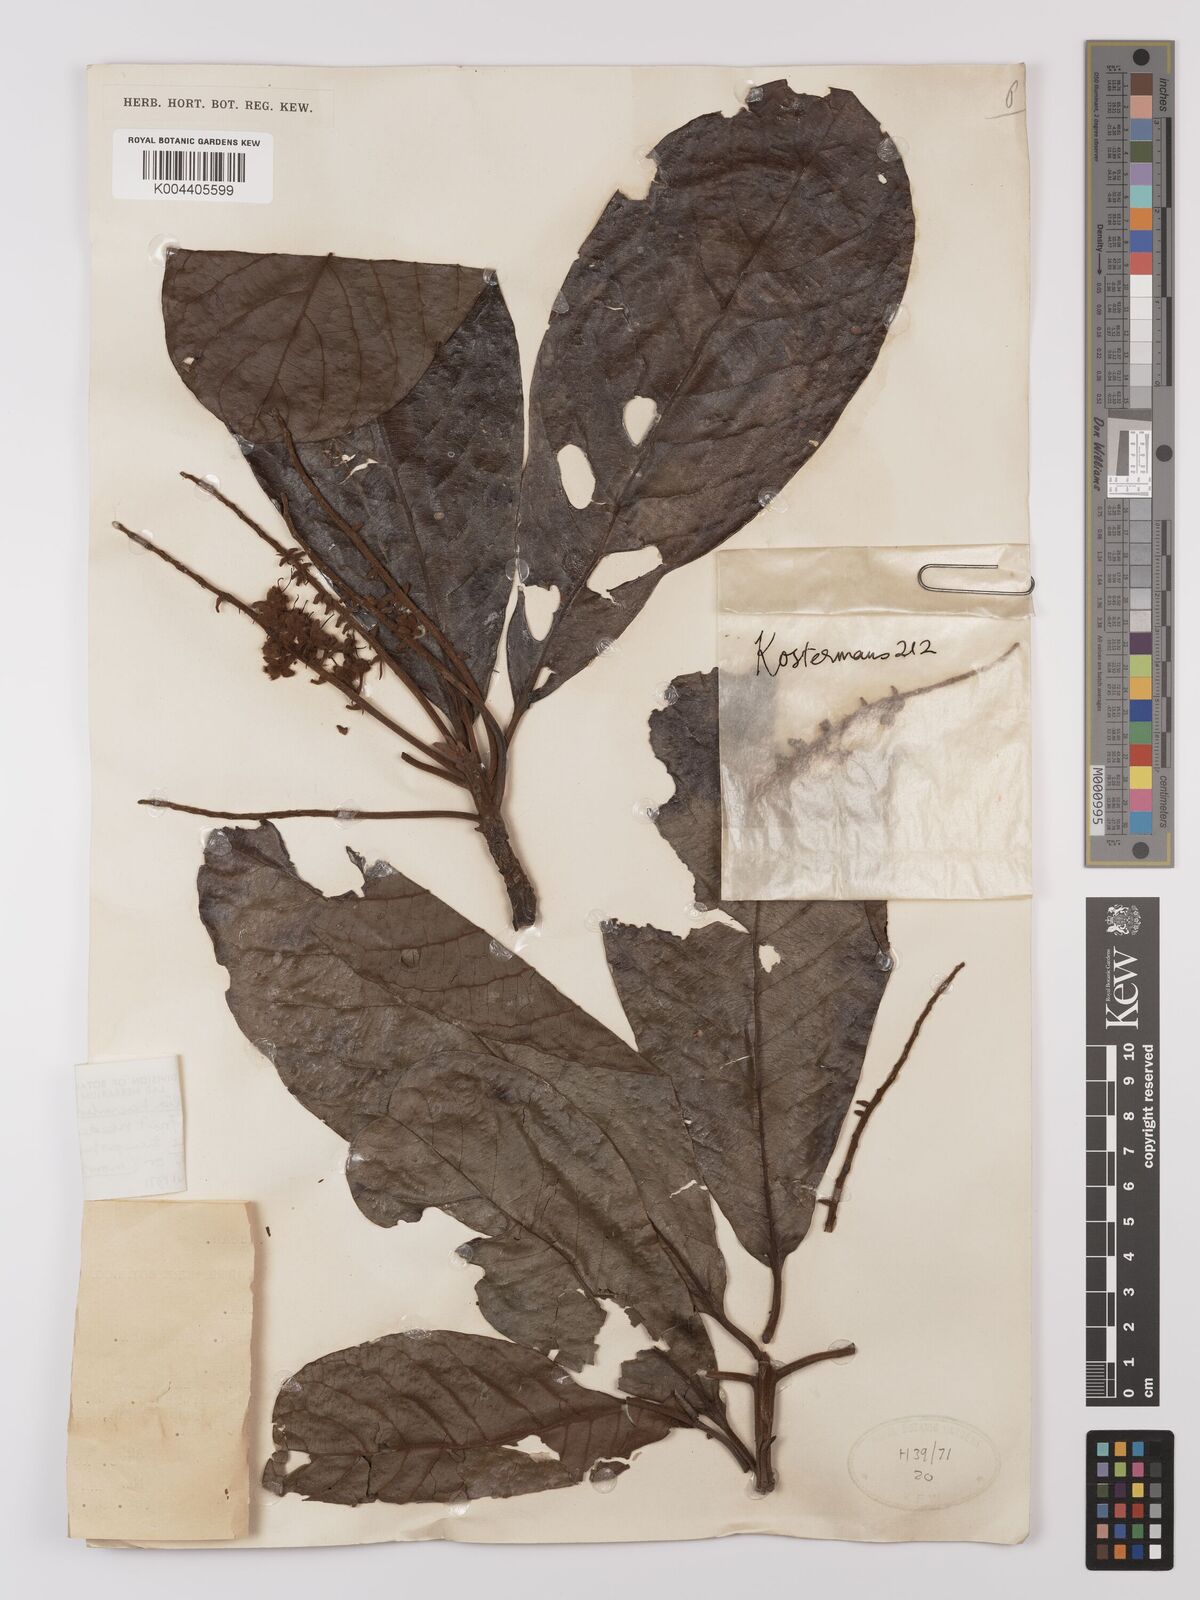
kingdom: Plantae
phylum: Tracheophyta
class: Magnoliopsida
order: Myrtales
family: Combretaceae
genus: Terminalia
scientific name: Terminalia kaernbachii
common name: Okari-nut
